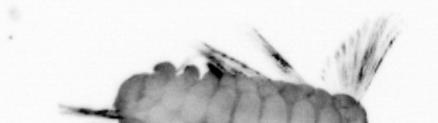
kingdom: Animalia
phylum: Annelida
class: Polychaeta
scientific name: Polychaeta
